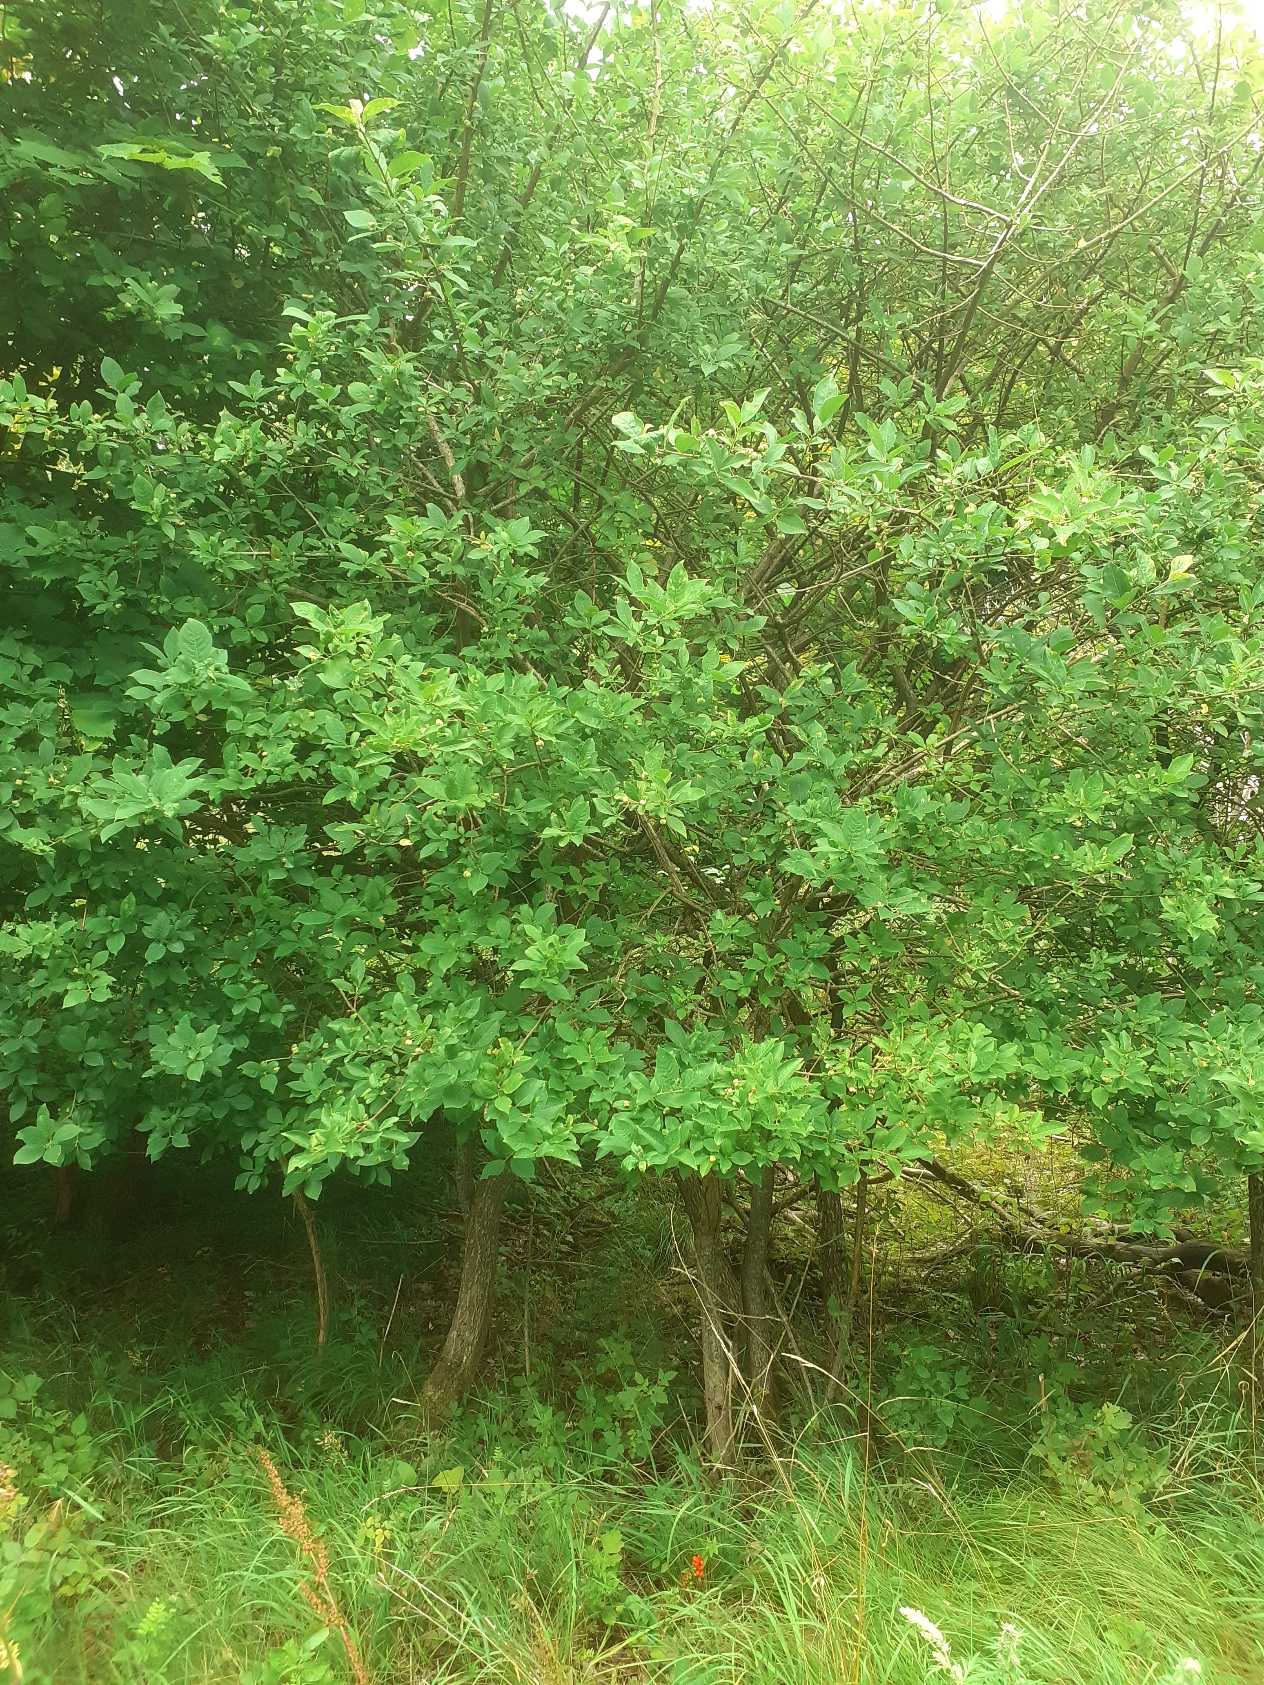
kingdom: Plantae
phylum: Tracheophyta
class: Magnoliopsida
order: Celastrales
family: Celastraceae
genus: Euonymus
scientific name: Euonymus europaeus
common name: Benved
